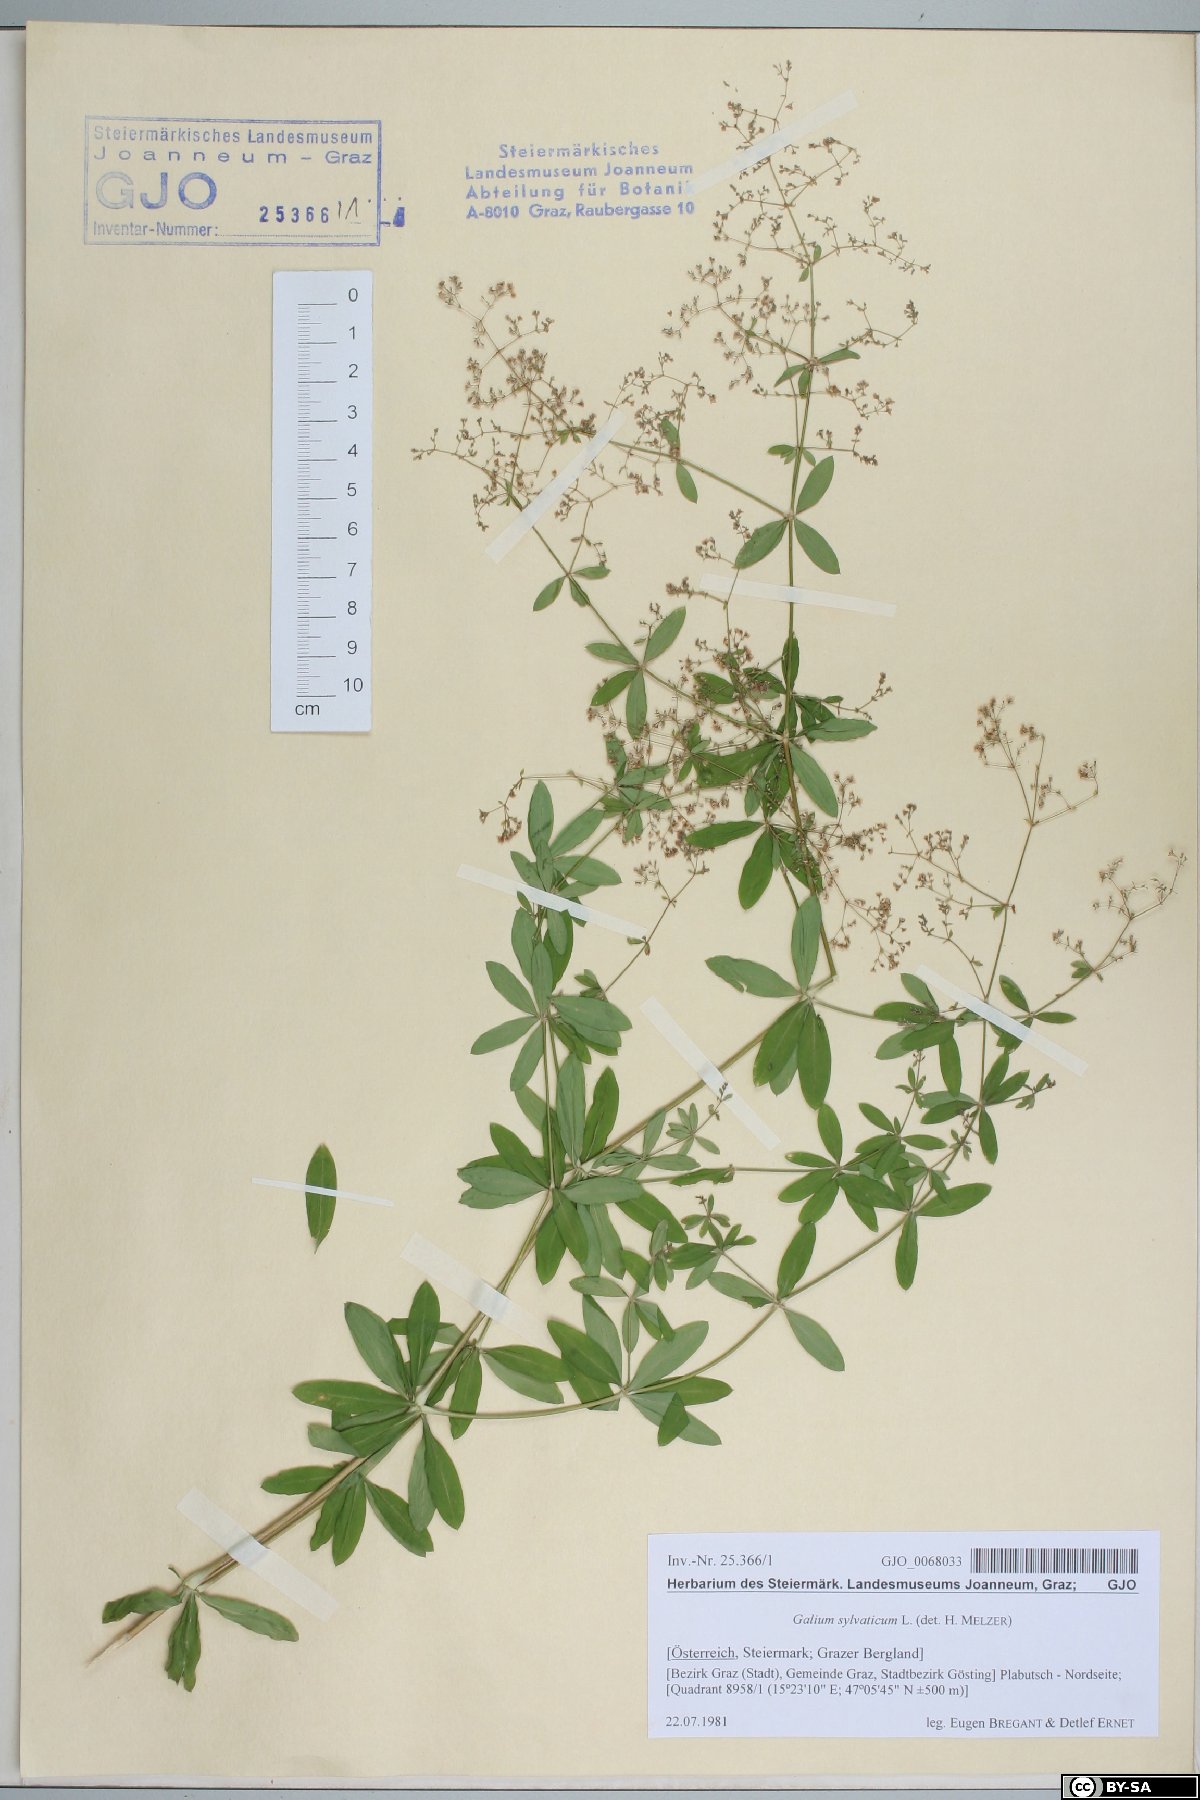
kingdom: Plantae
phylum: Tracheophyta
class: Magnoliopsida
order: Gentianales
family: Rubiaceae
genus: Galium
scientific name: Galium sylvaticum
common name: Wood bedstraw
